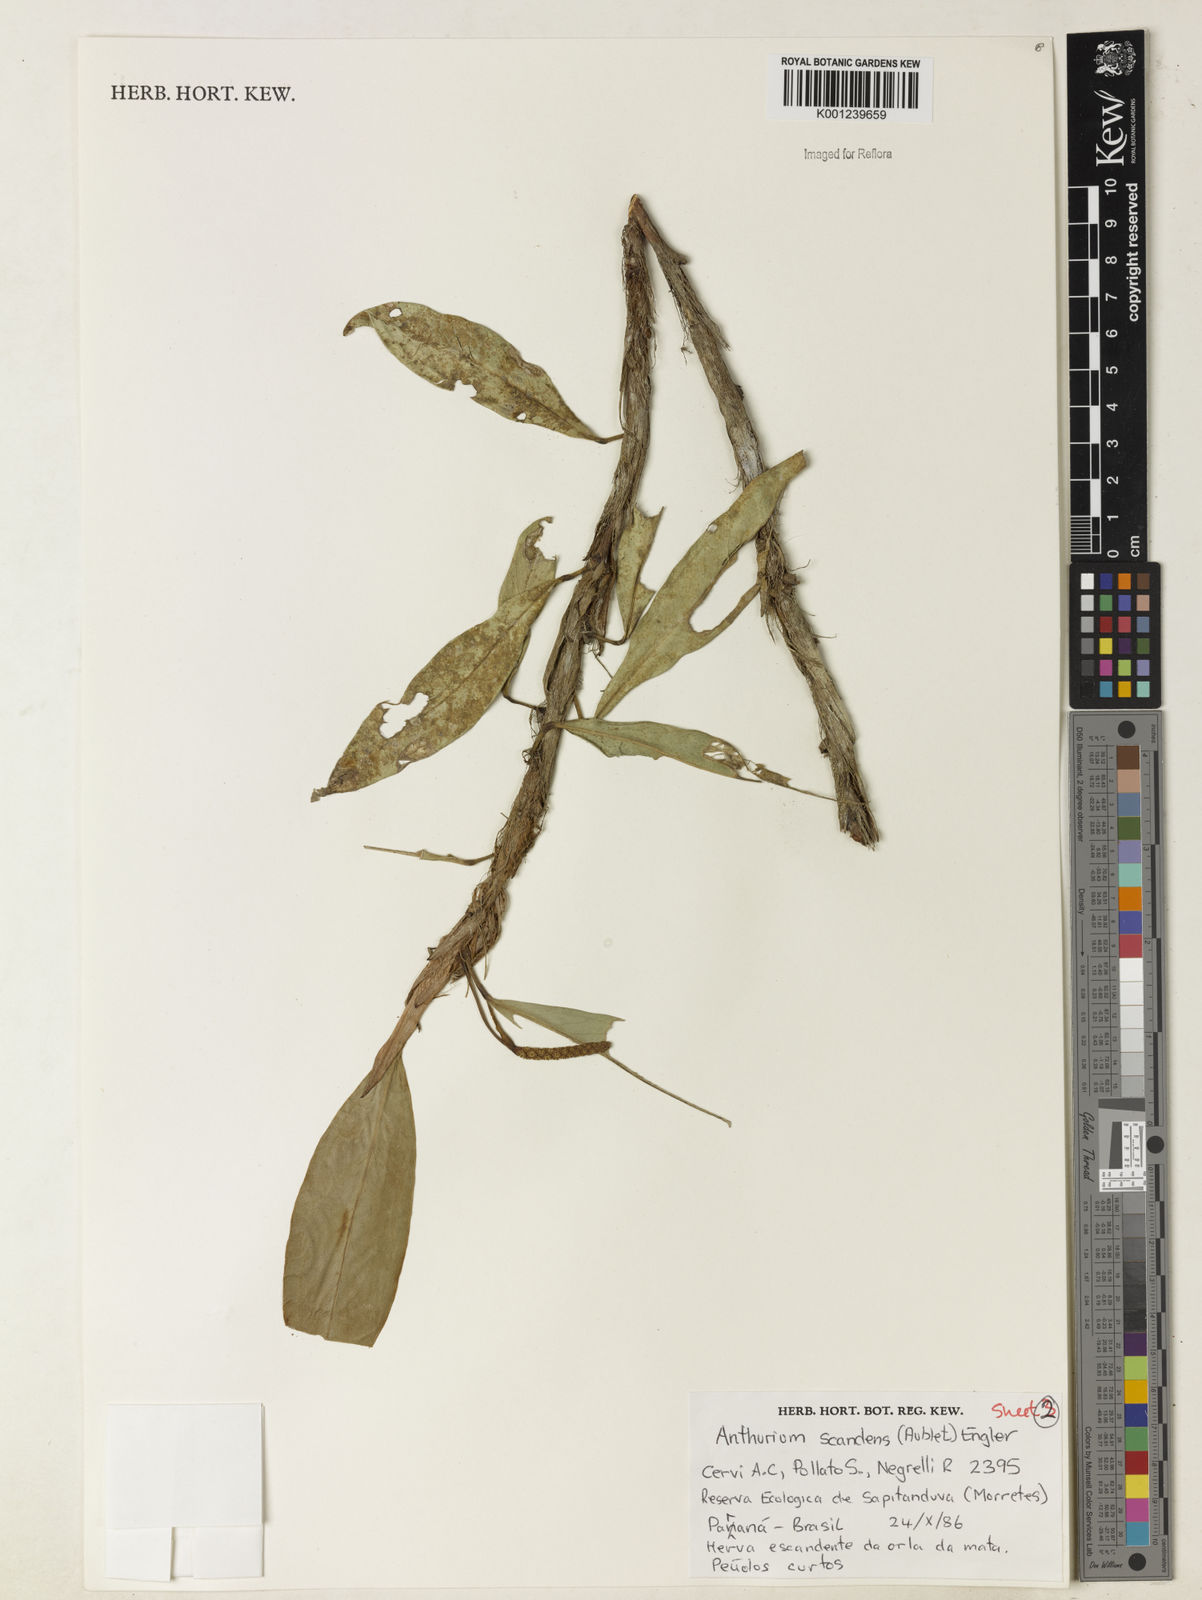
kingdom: Plantae
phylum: Tracheophyta
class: Liliopsida
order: Alismatales
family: Araceae
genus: Anthurium
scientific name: Anthurium scandens
